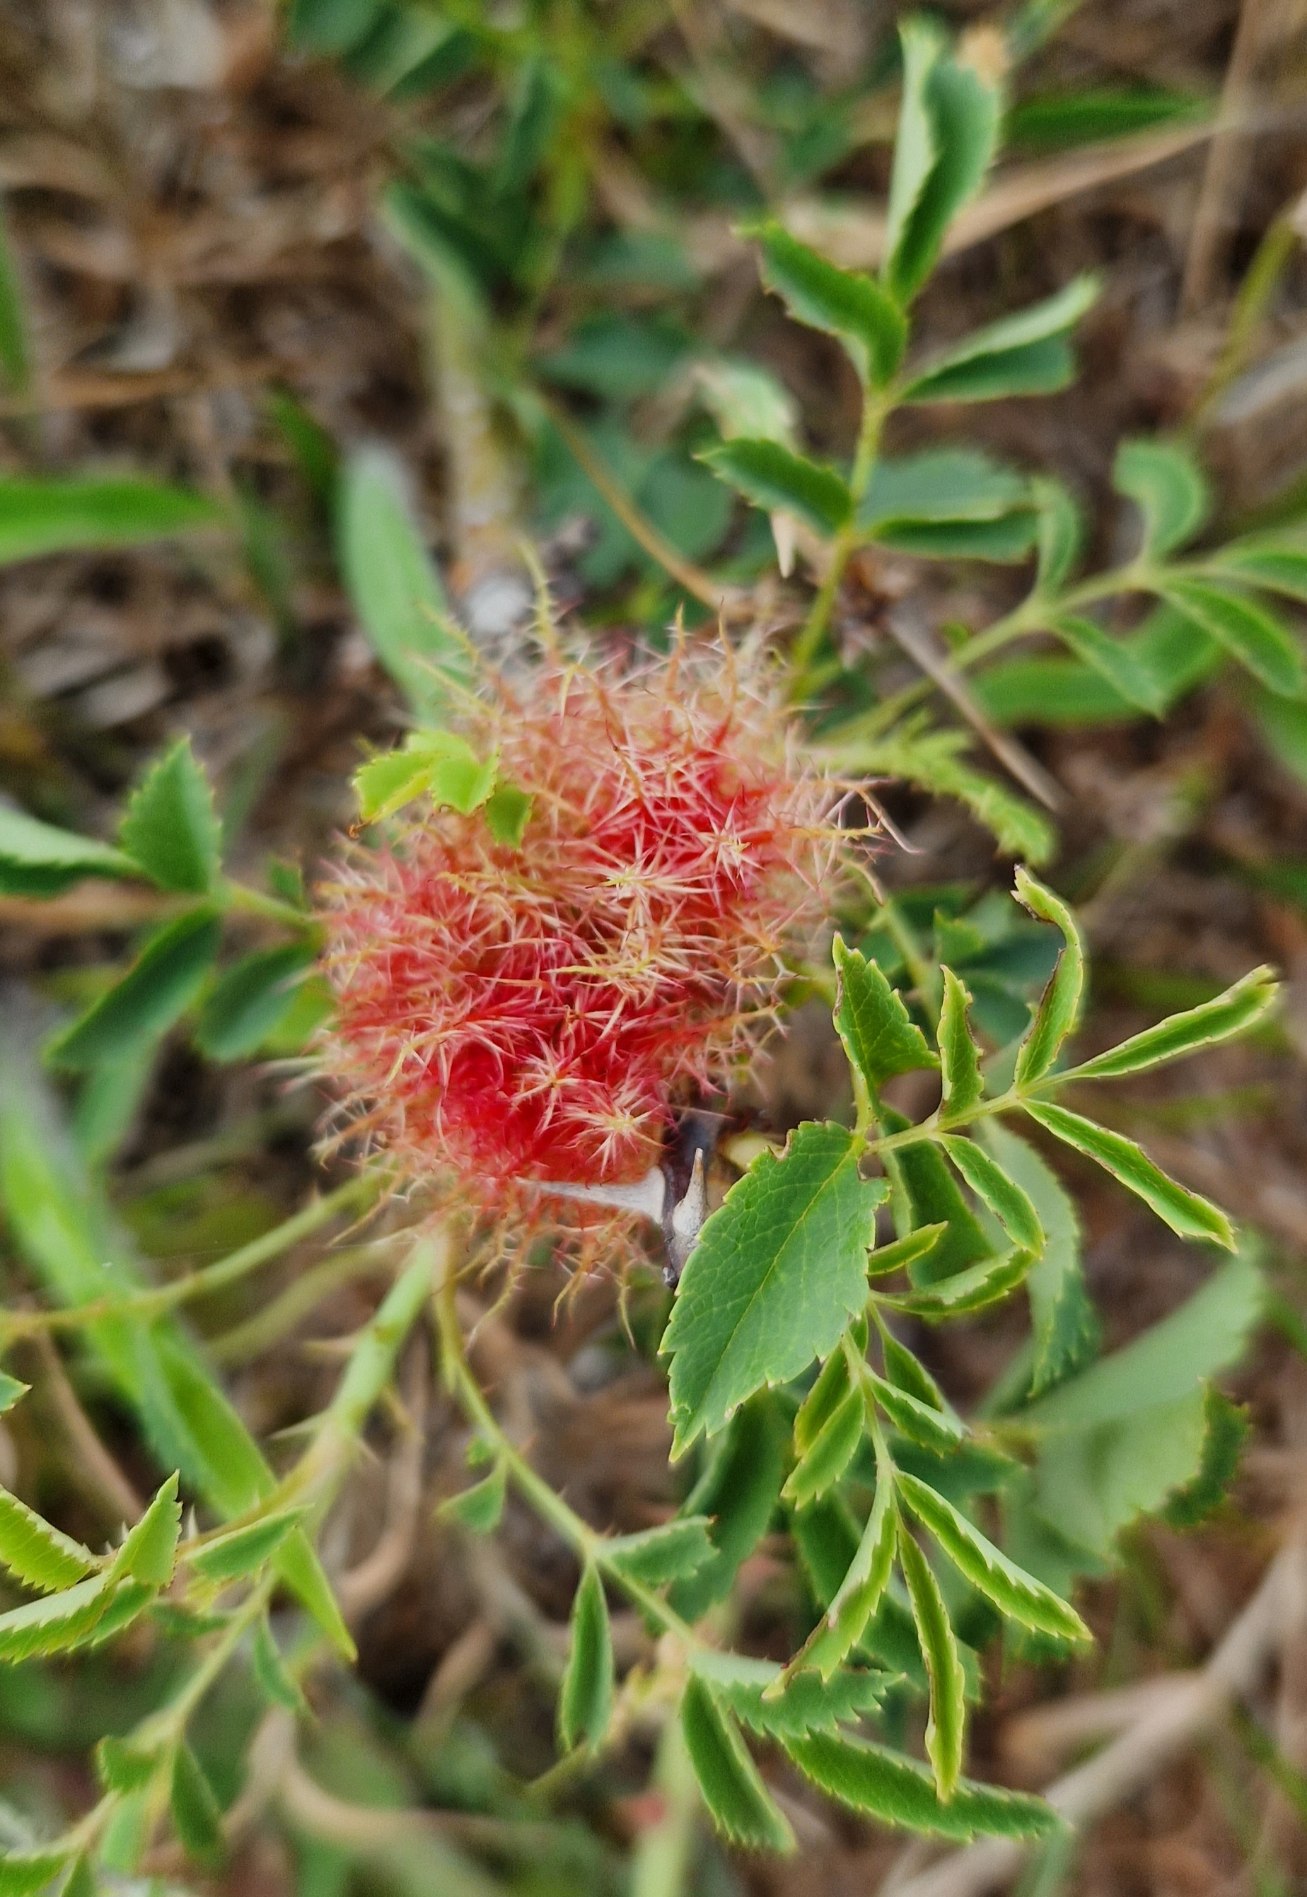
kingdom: Animalia
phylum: Arthropoda
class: Insecta
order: Hymenoptera
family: Cynipidae
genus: Diplolepis
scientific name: Diplolepis rosae
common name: Bedeguargalhveps
